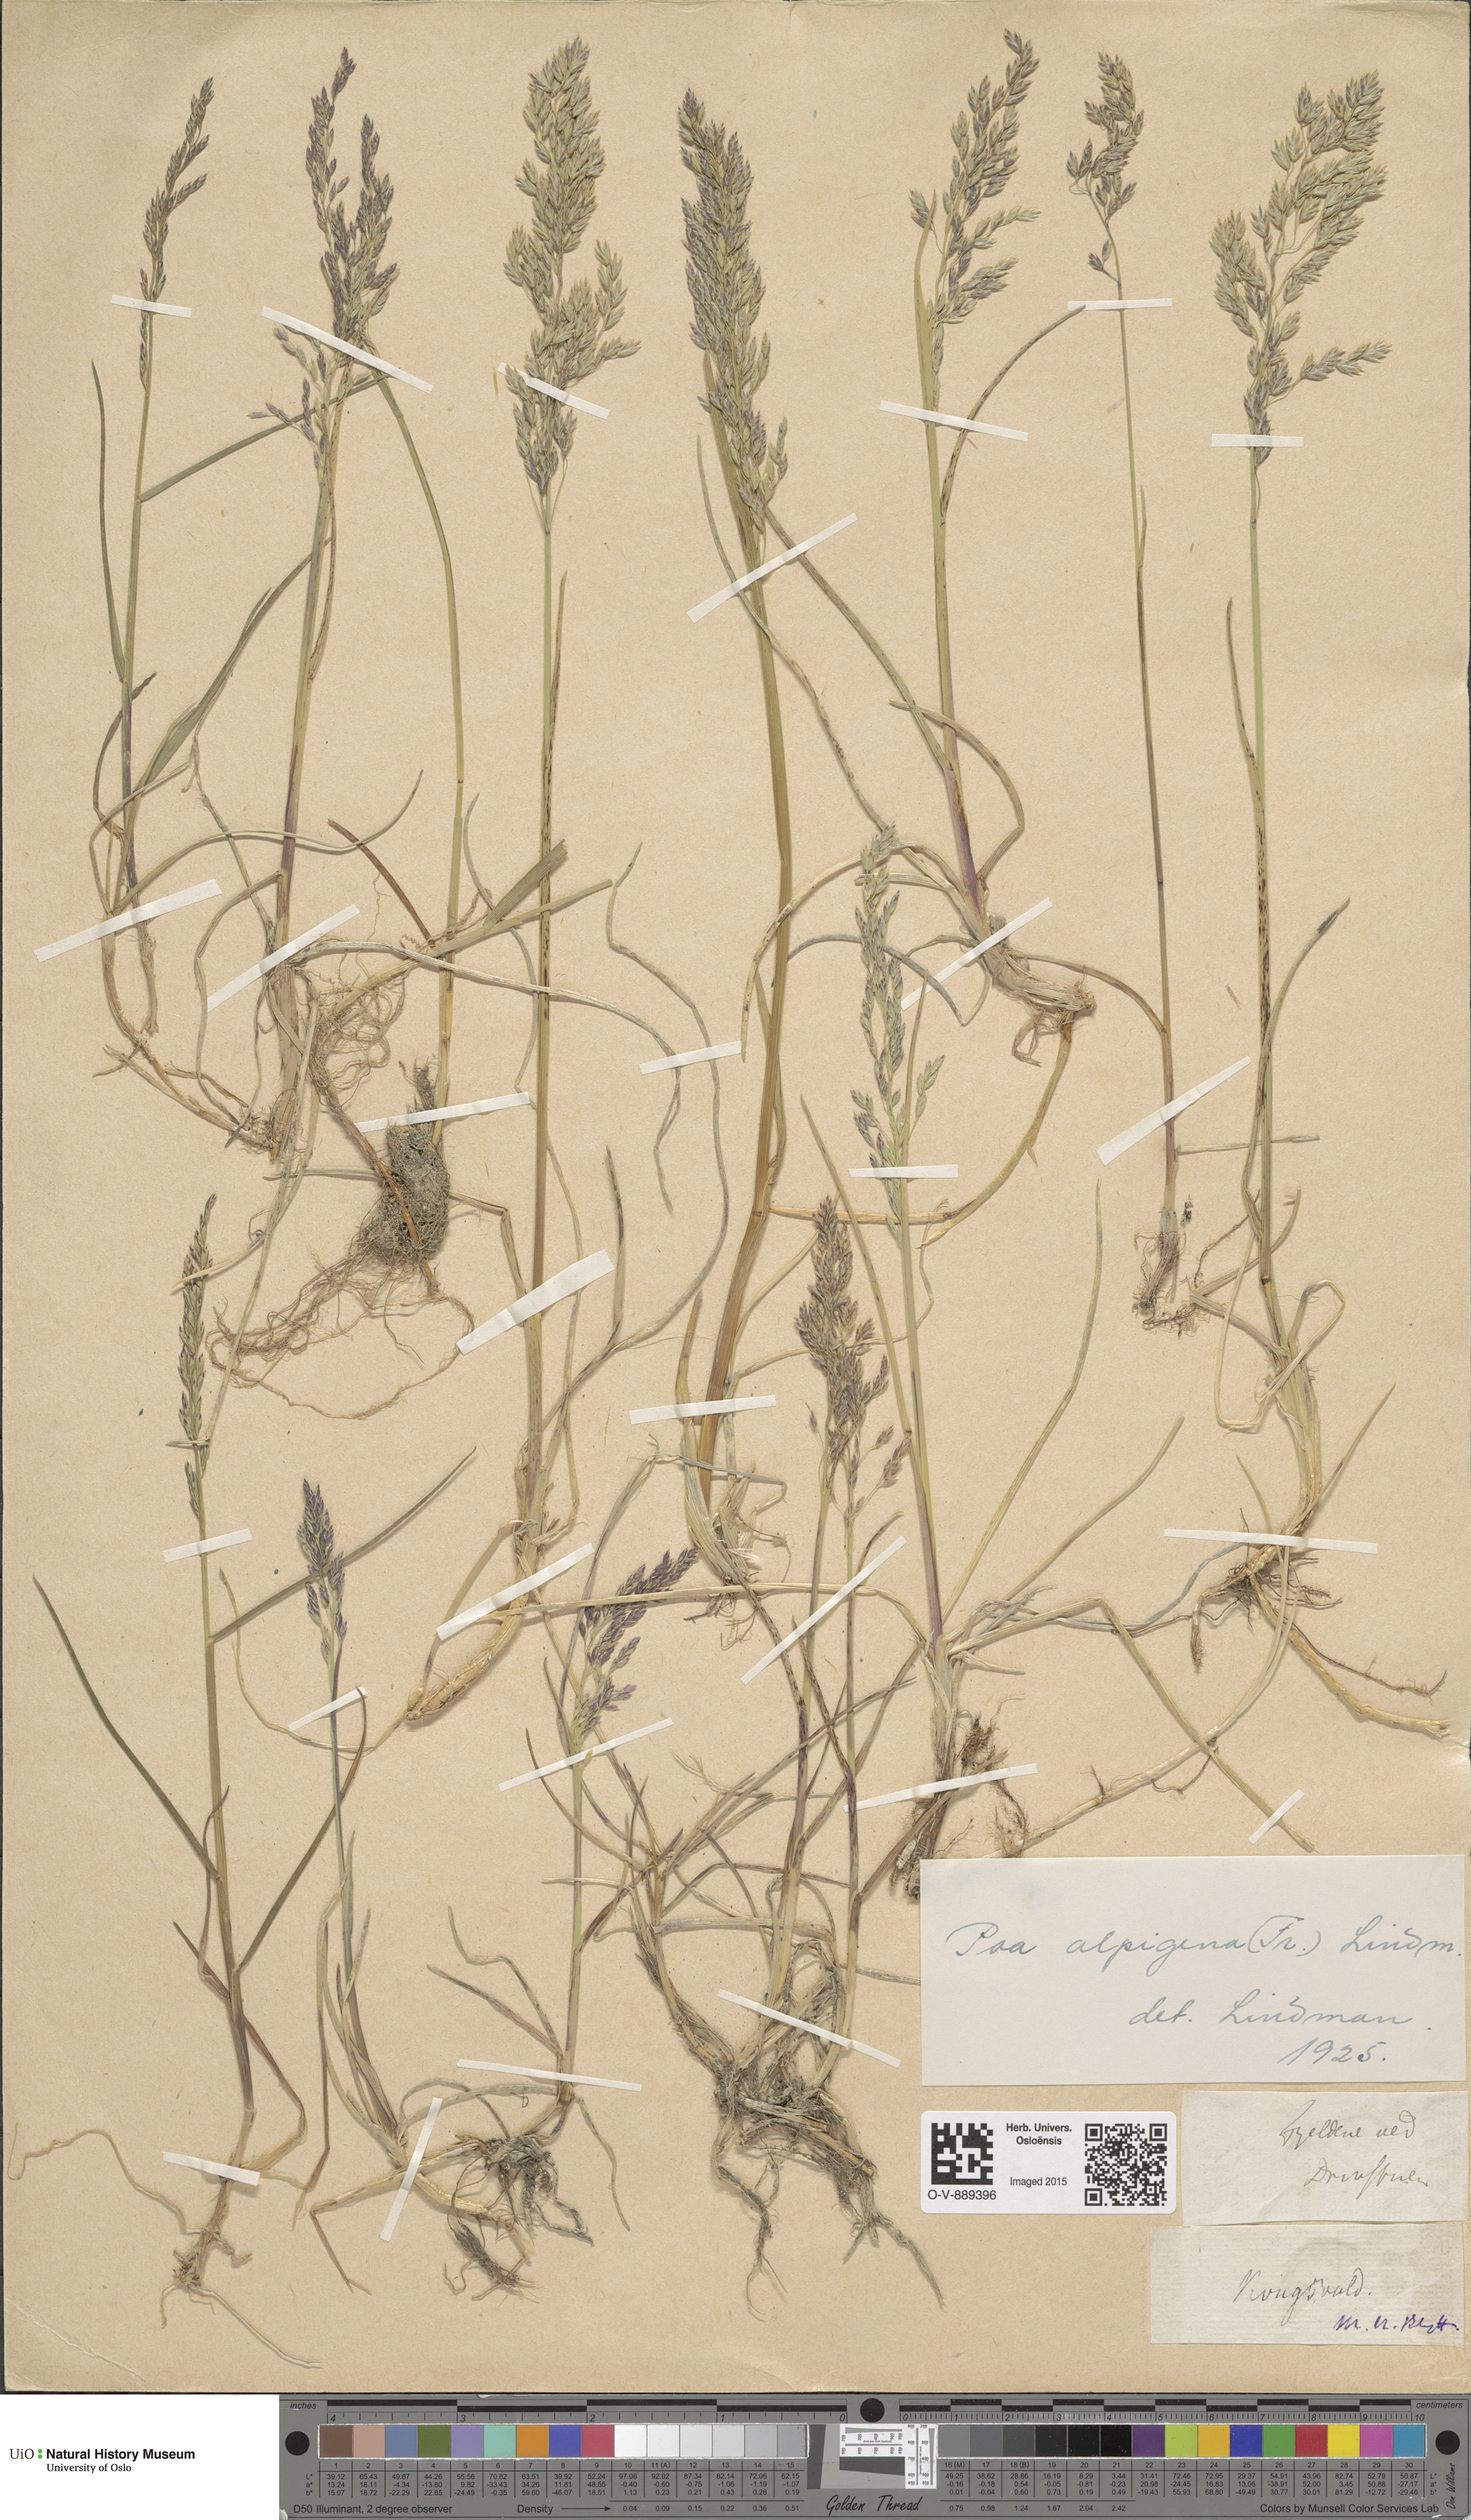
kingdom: Plantae
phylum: Tracheophyta
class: Liliopsida
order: Poales
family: Poaceae
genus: Poa
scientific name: Poa alpigena
